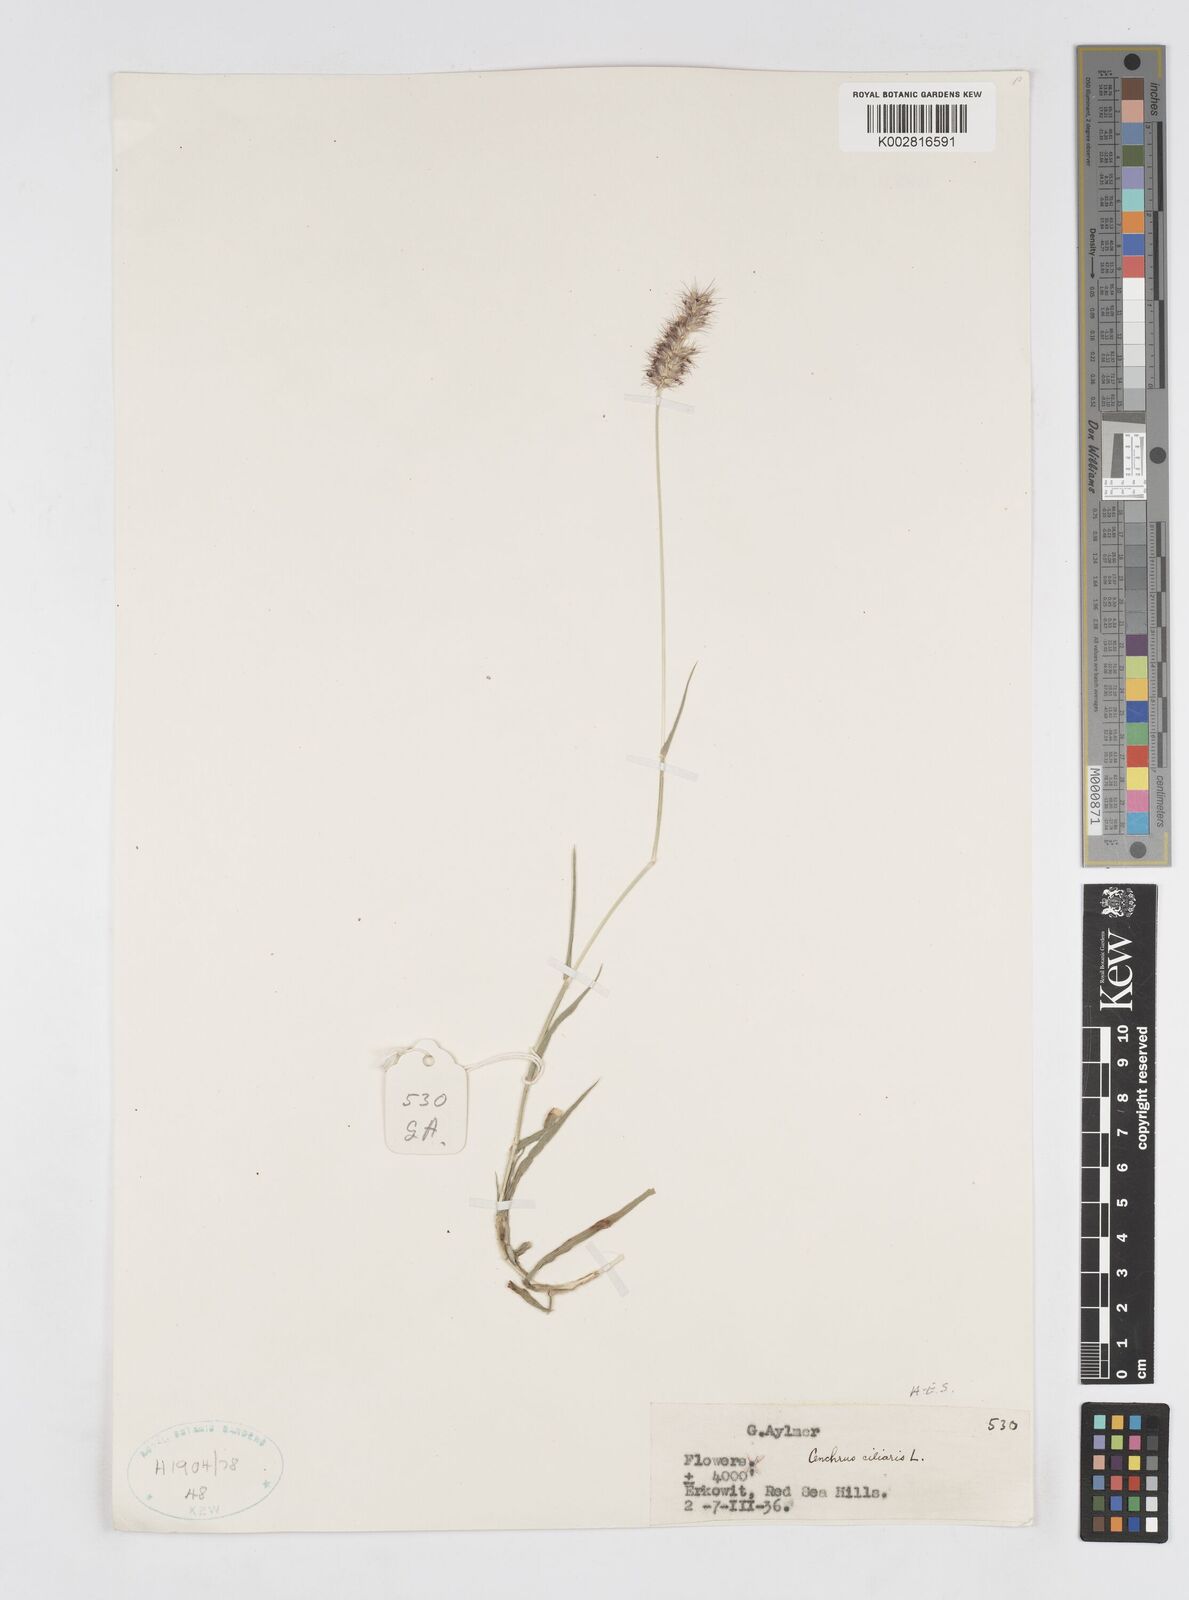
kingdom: Plantae
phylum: Tracheophyta
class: Liliopsida
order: Poales
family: Poaceae
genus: Cenchrus
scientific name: Cenchrus ciliaris
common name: Buffelgrass
